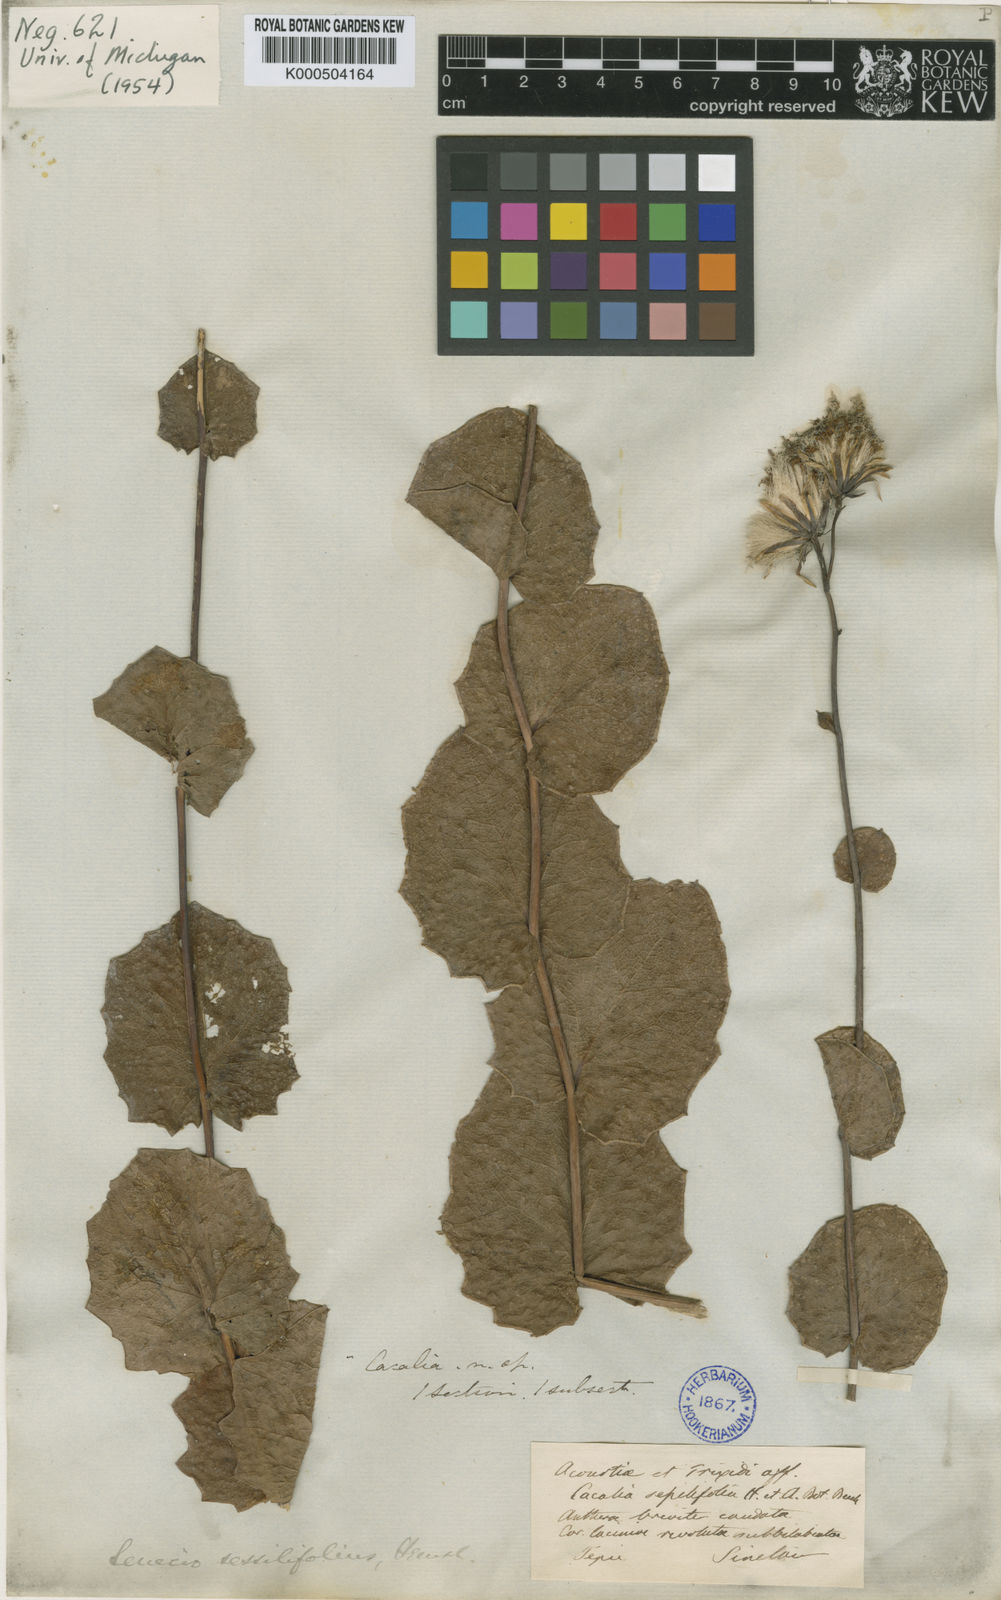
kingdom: Plantae
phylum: Tracheophyta
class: Magnoliopsida
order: Asterales
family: Asteraceae
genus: Roldana
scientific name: Roldana
